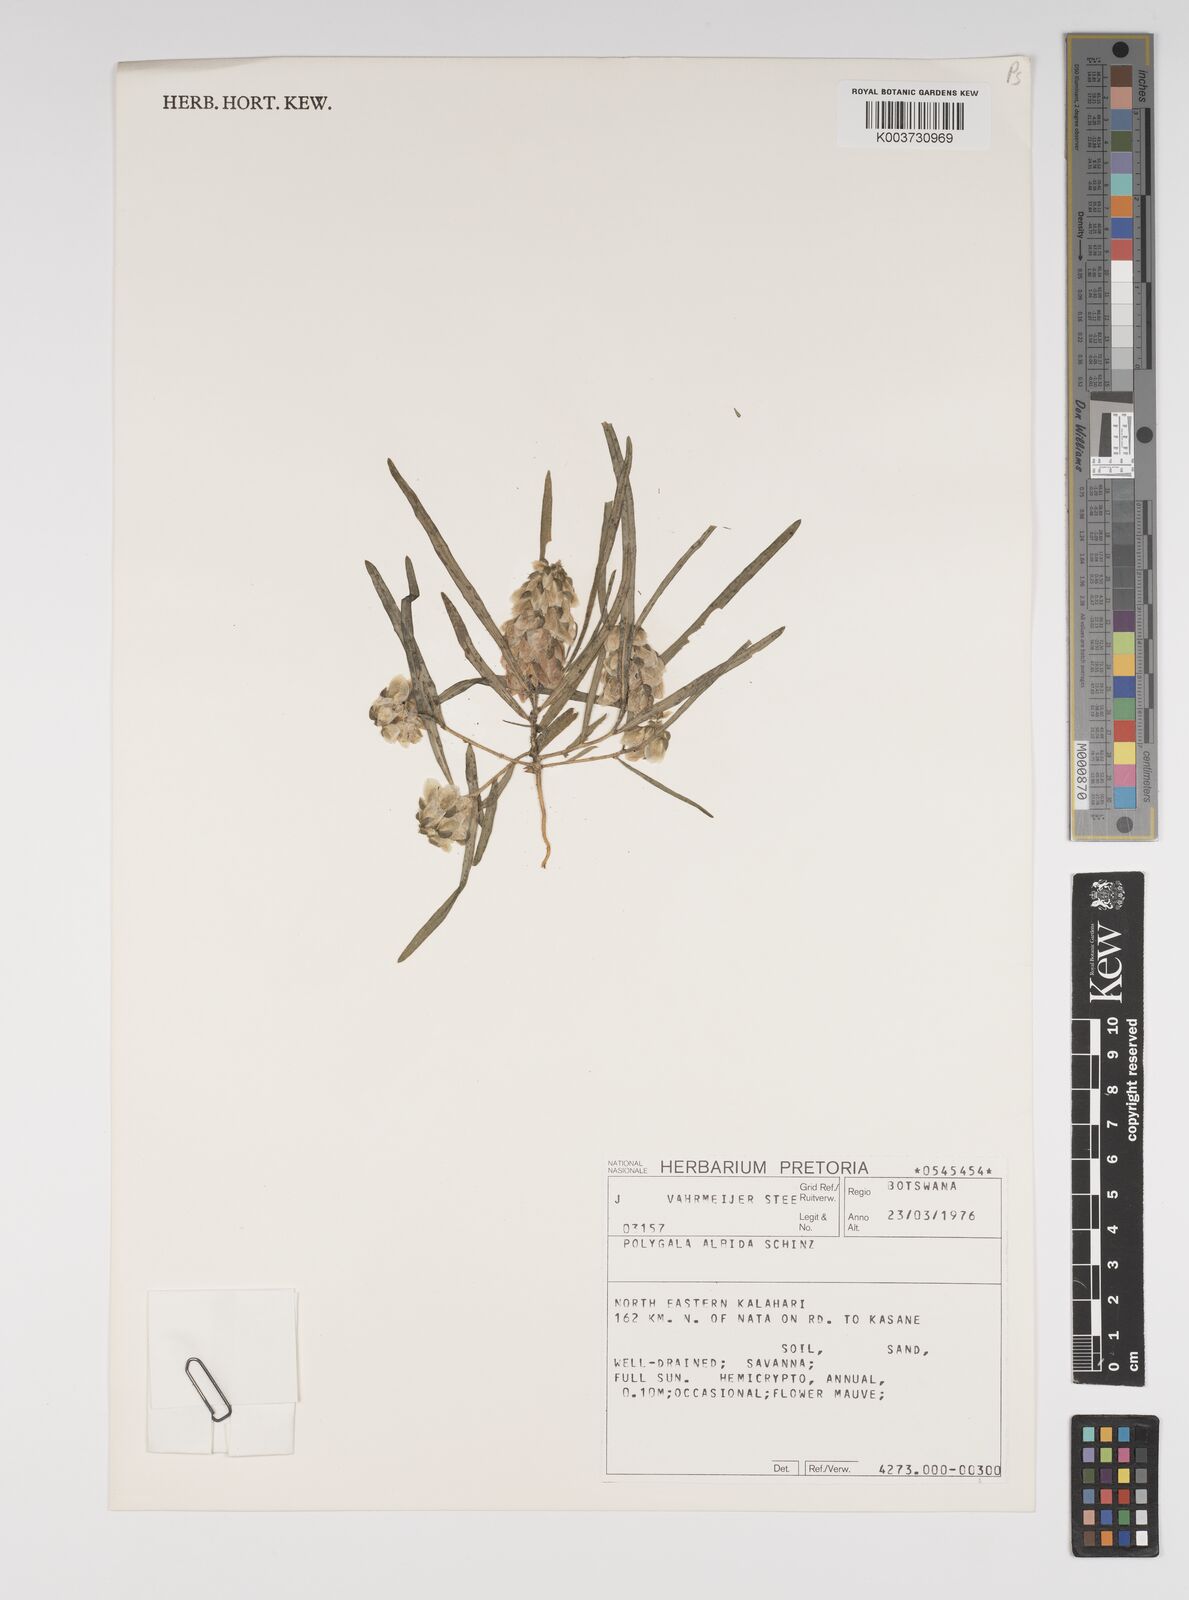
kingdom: Plantae
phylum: Tracheophyta
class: Magnoliopsida
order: Fabales
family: Polygalaceae
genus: Polygala
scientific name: Polygala albida
